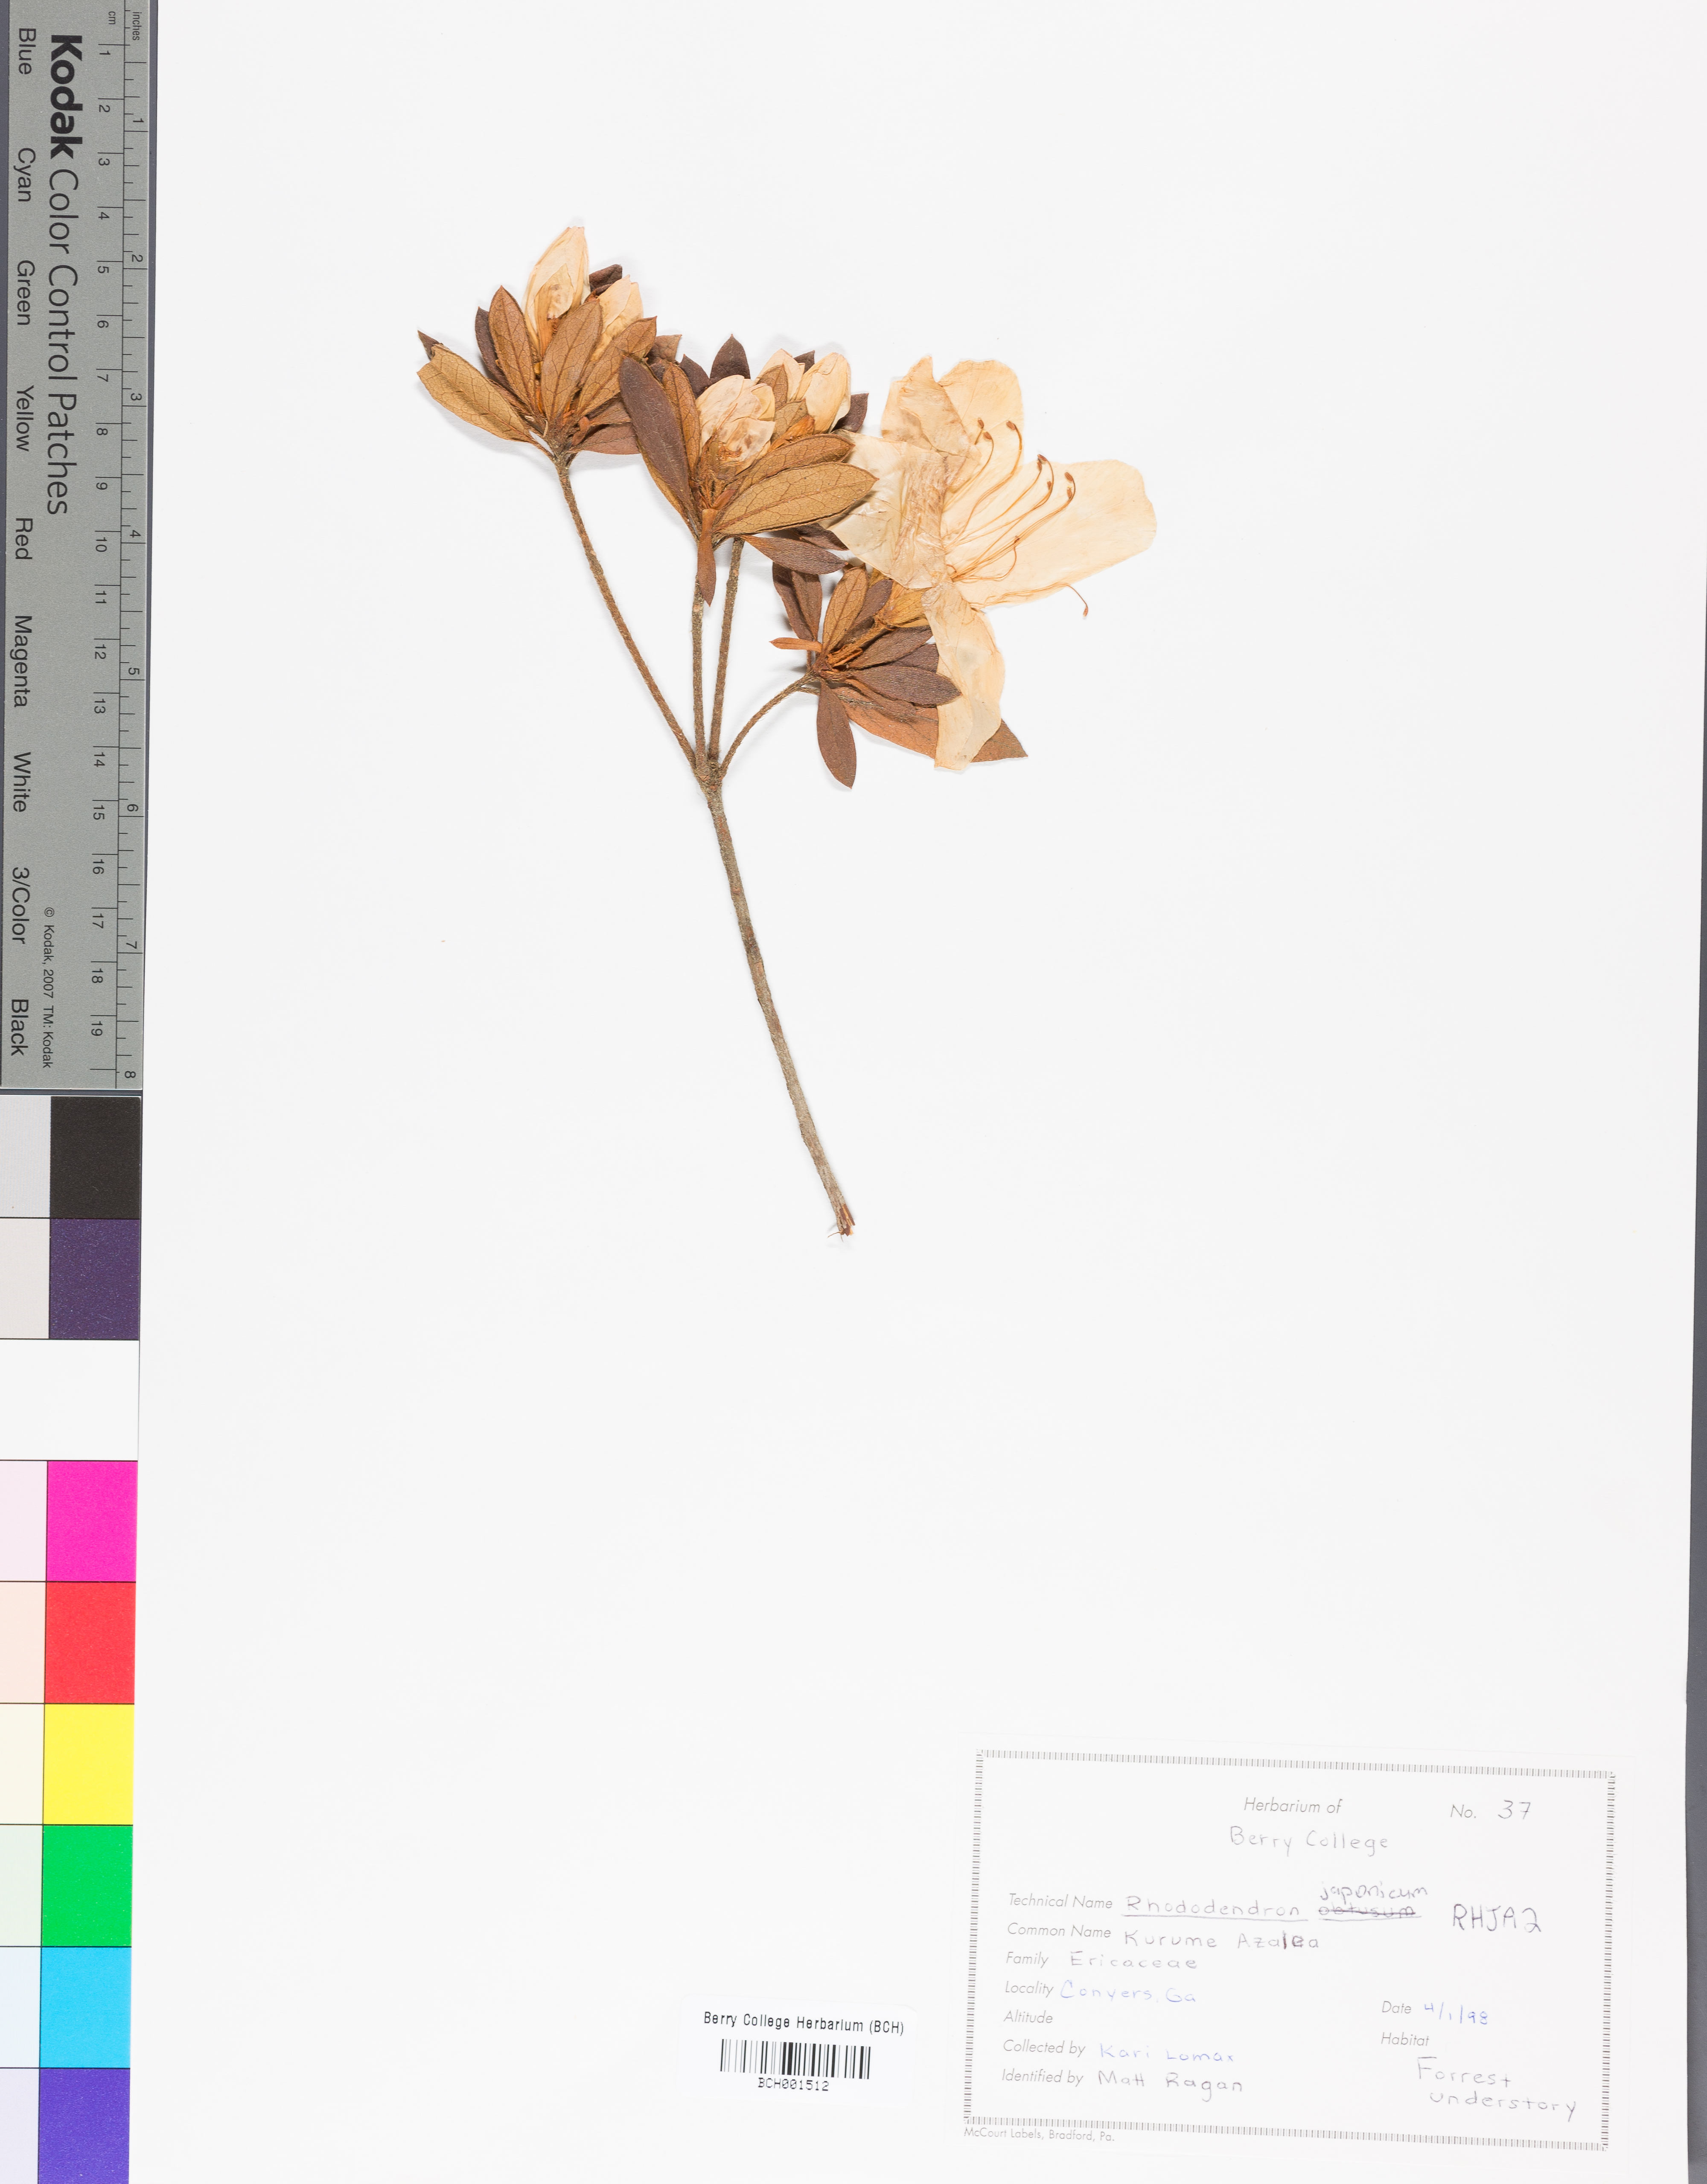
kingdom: Plantae
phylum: Tracheophyta
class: Magnoliopsida
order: Ericales
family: Ericaceae
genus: Rhododendron
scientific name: Rhododendron japonicum
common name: Japanese azalea
